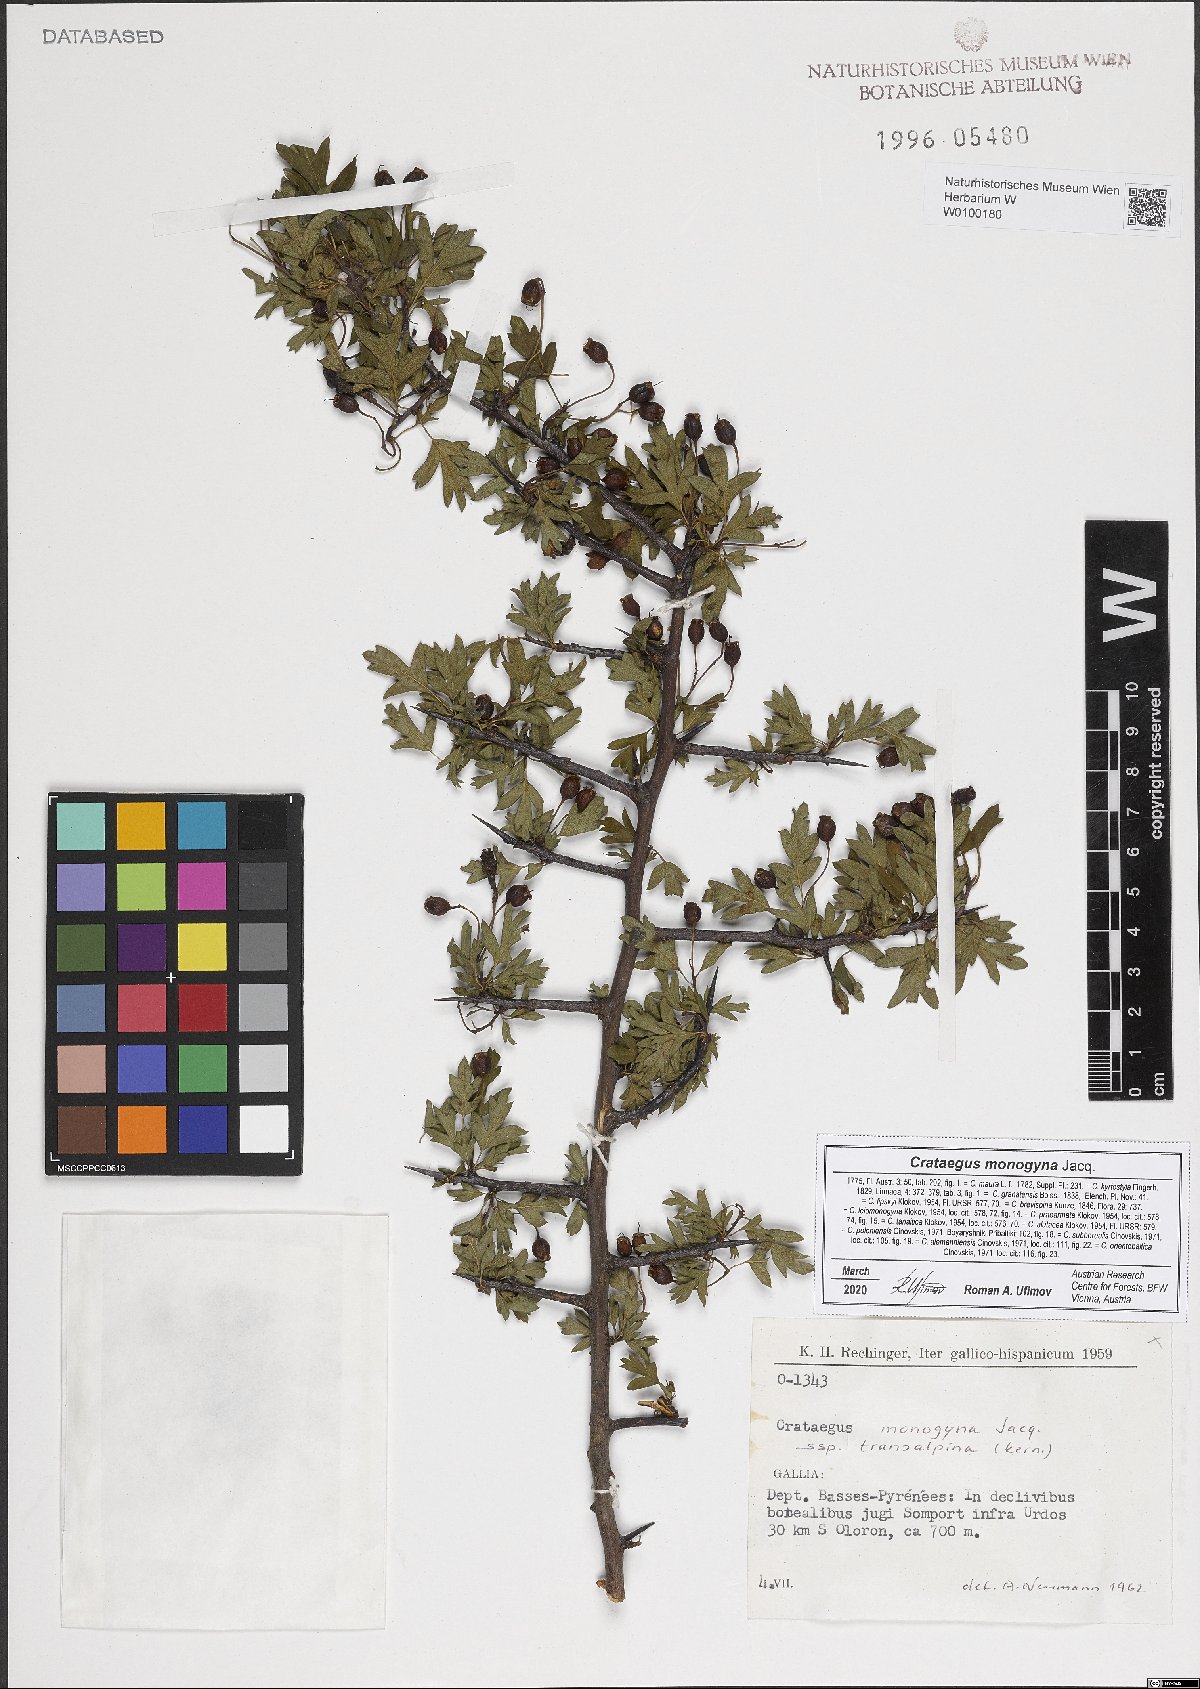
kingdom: Plantae
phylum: Tracheophyta
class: Magnoliopsida
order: Rosales
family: Rosaceae
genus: Crataegus
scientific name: Crataegus monogyna
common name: Hawthorn
